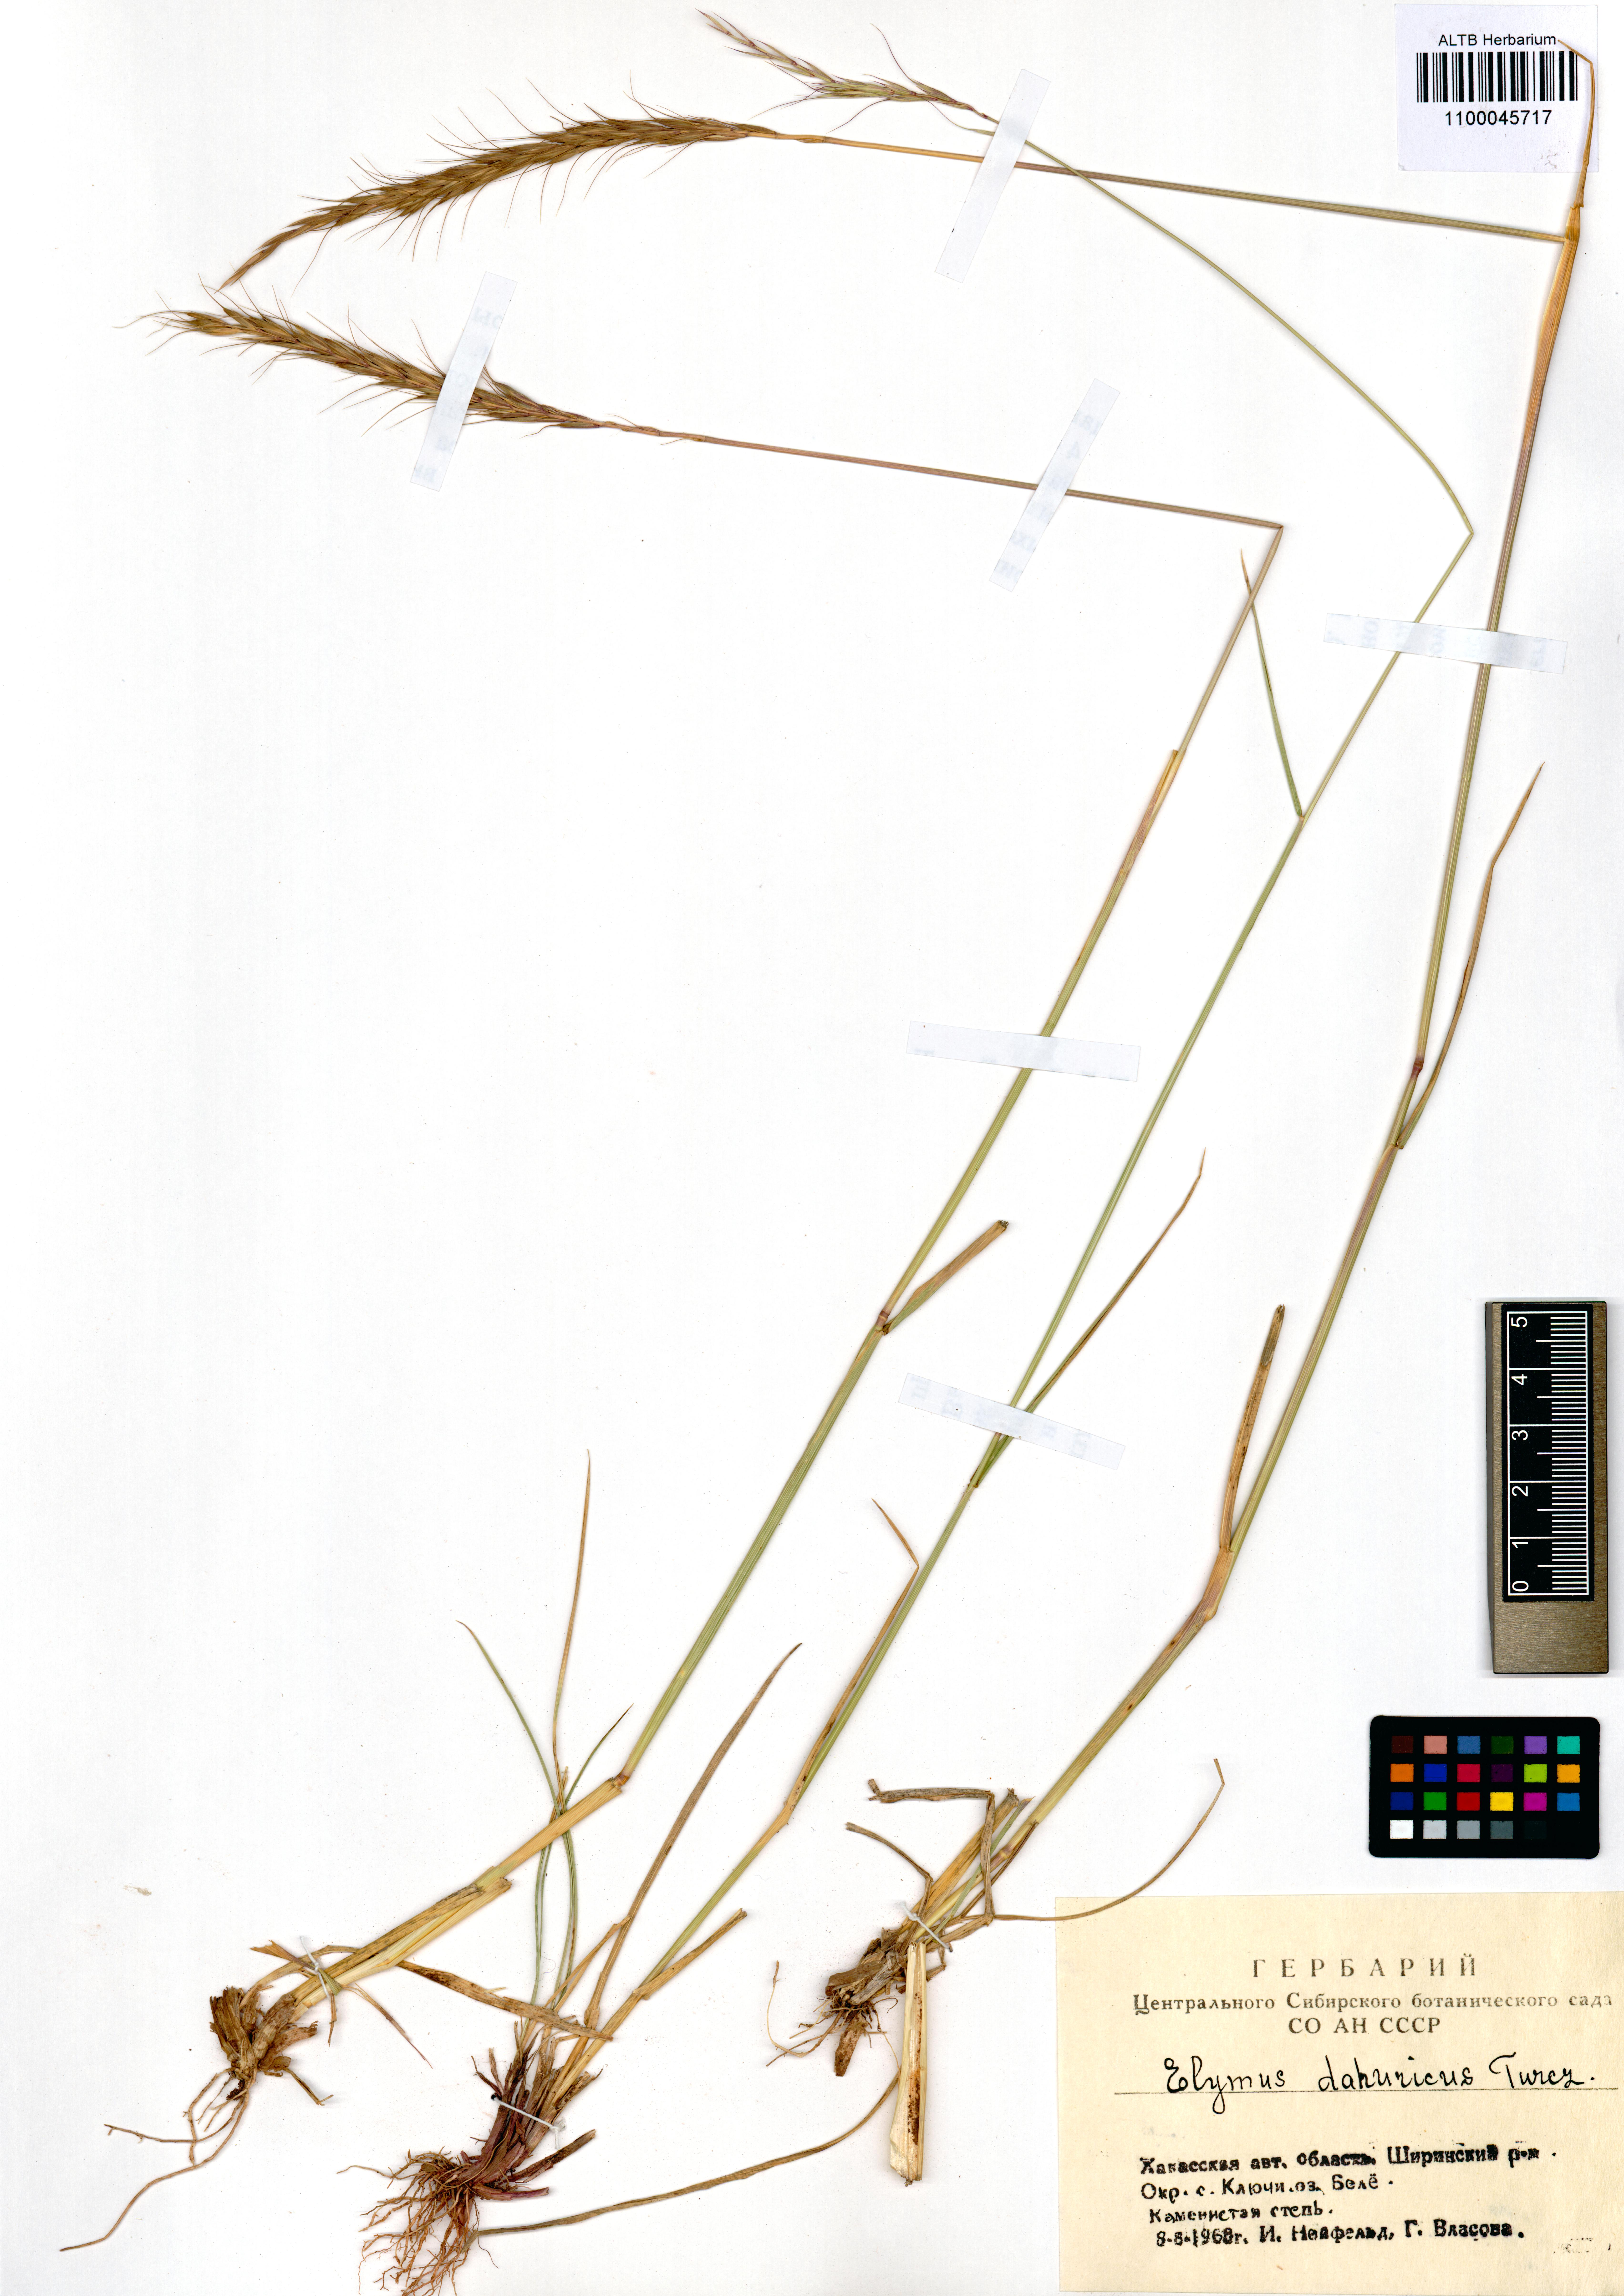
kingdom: Plantae
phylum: Tracheophyta
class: Liliopsida
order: Poales
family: Poaceae
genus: Elymus
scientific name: Elymus dahuricus
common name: Dahurian wild rye
